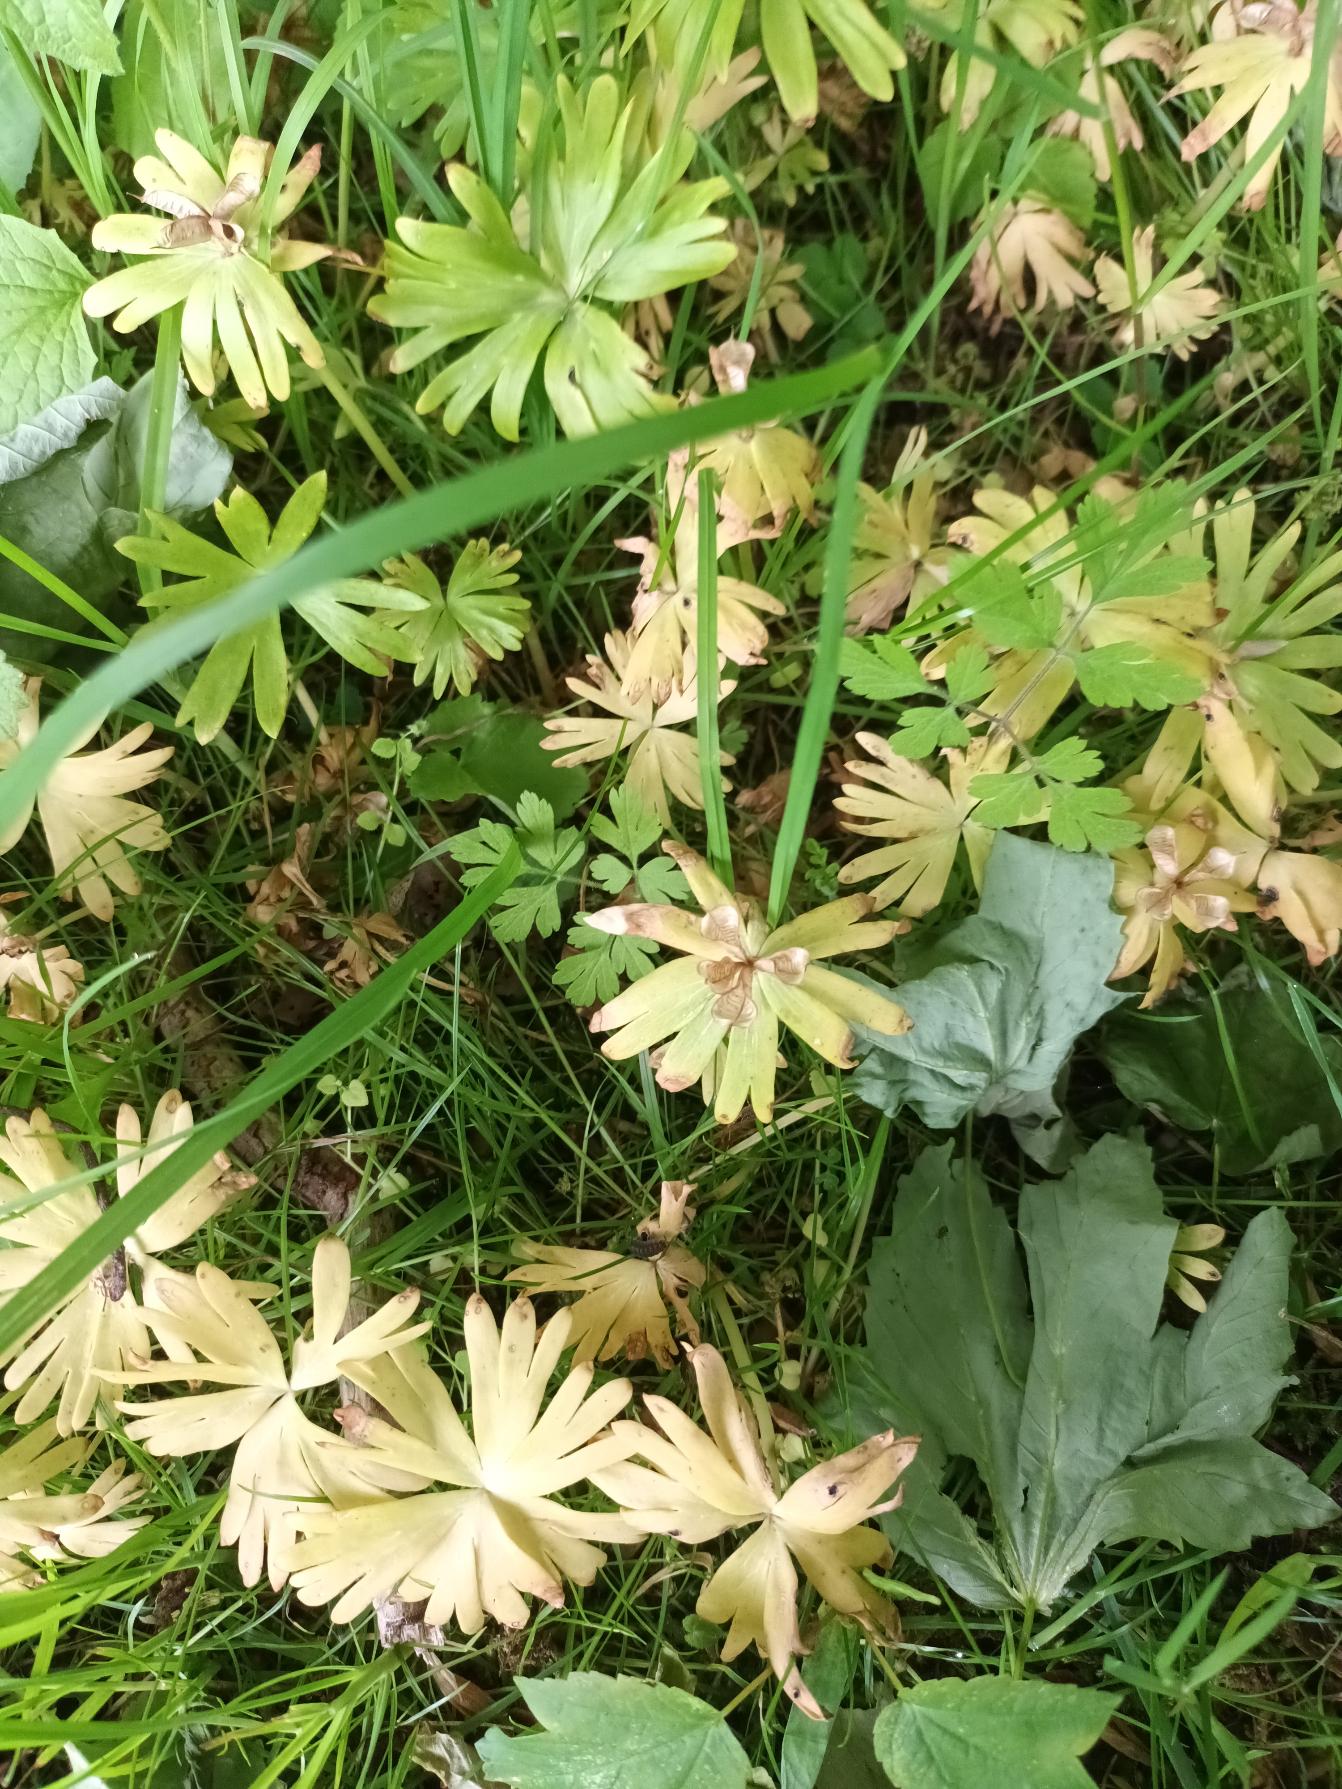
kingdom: Plantae
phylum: Tracheophyta
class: Magnoliopsida
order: Ranunculales
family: Ranunculaceae
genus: Eranthis
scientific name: Eranthis hyemalis
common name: Erantis
